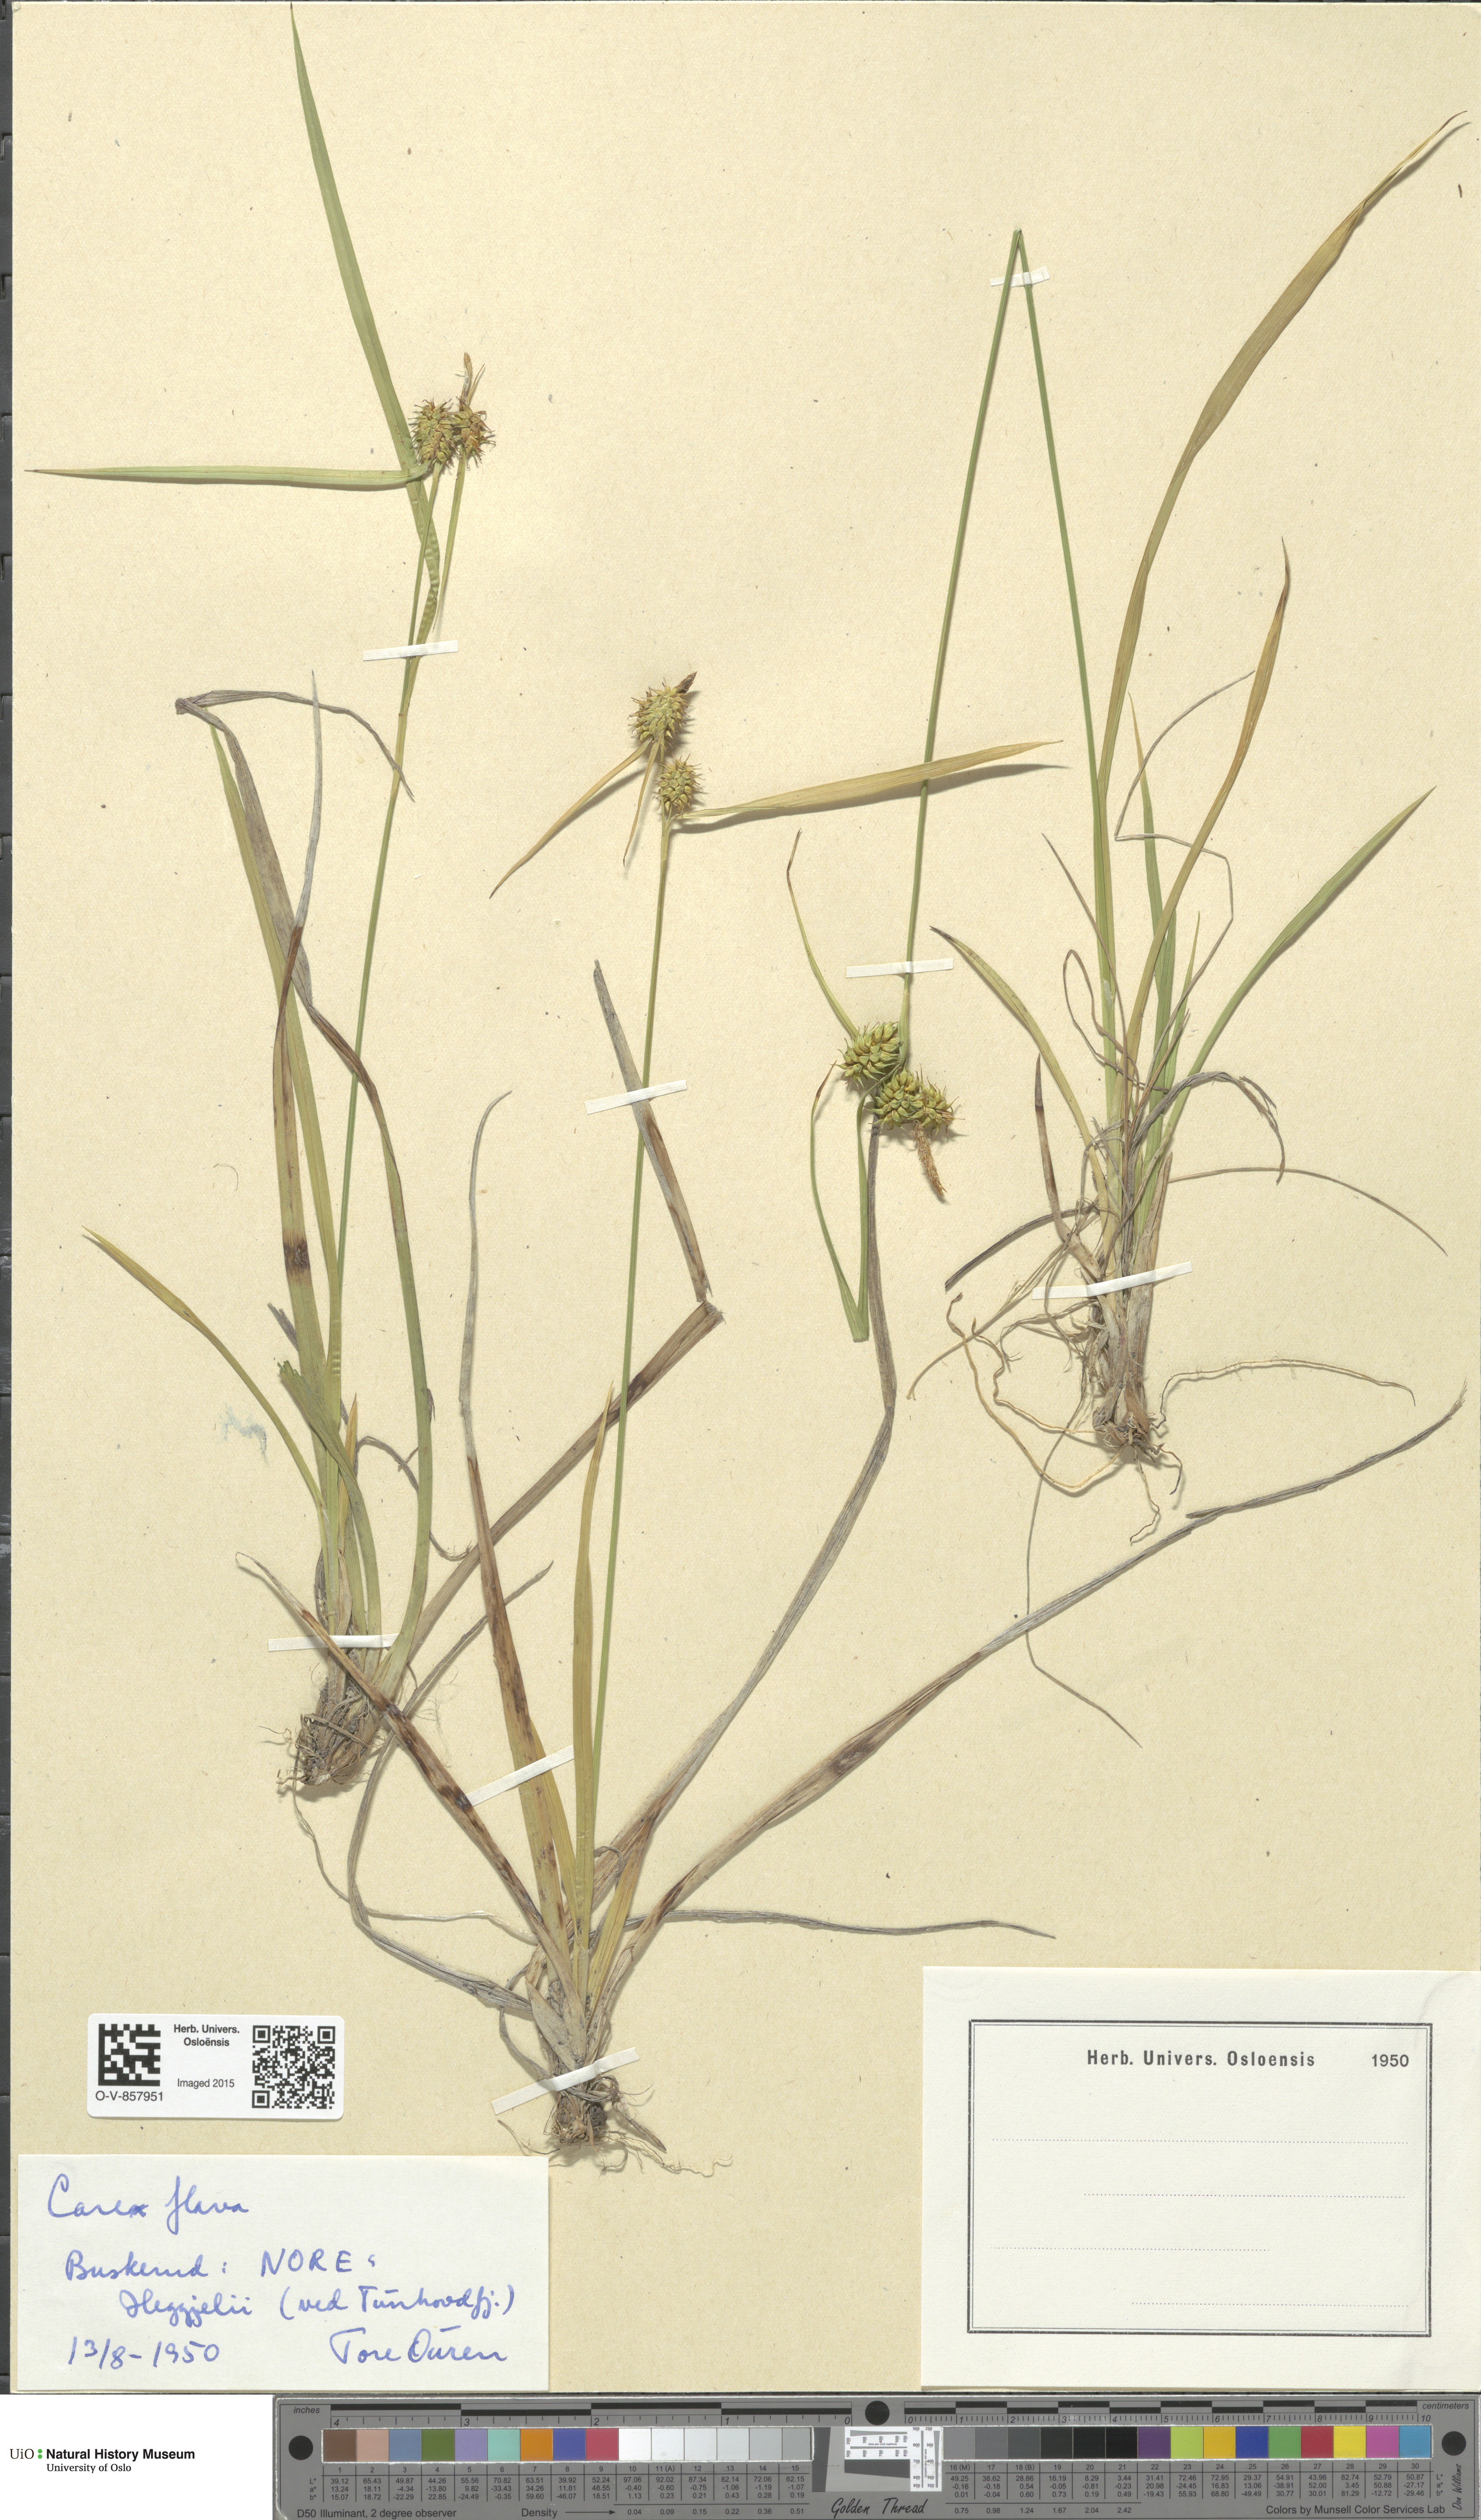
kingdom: Plantae
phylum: Tracheophyta
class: Liliopsida
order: Poales
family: Cyperaceae
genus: Carex
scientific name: Carex flava
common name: Large yellow-sedge
